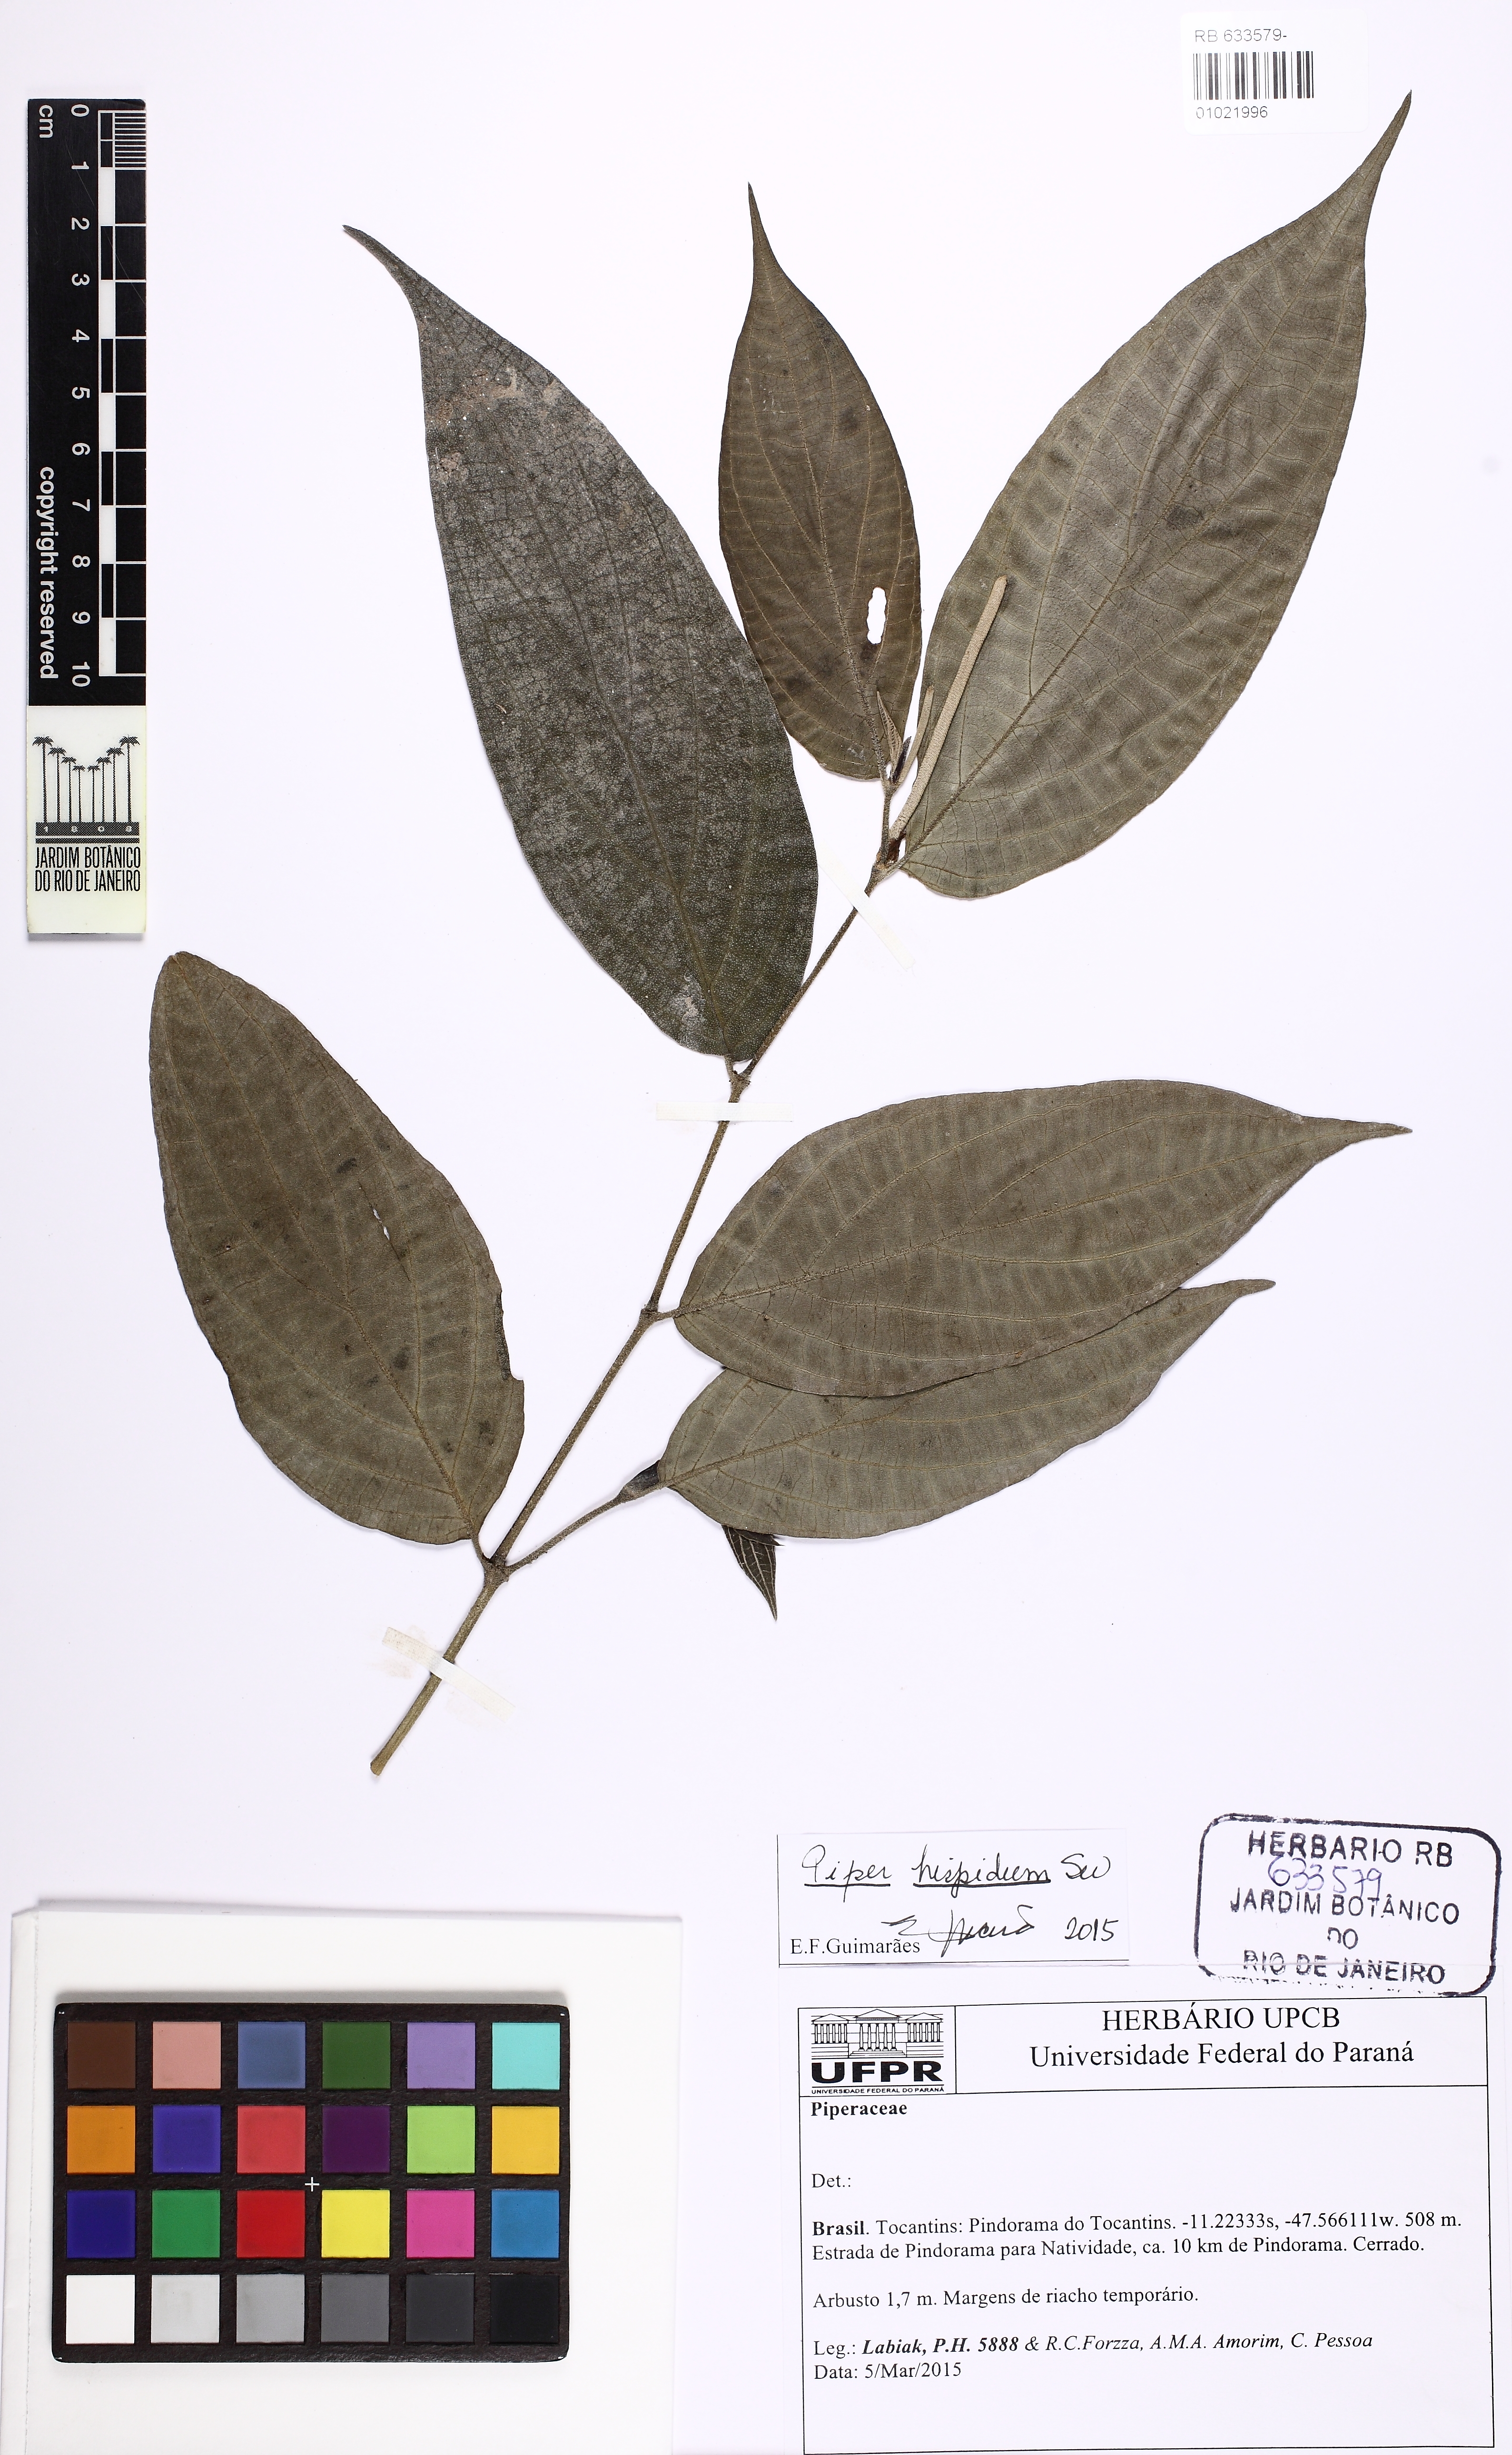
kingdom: Plantae
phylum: Tracheophyta
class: Magnoliopsida
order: Piperales
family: Piperaceae
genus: Piper
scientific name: Piper hispidum
